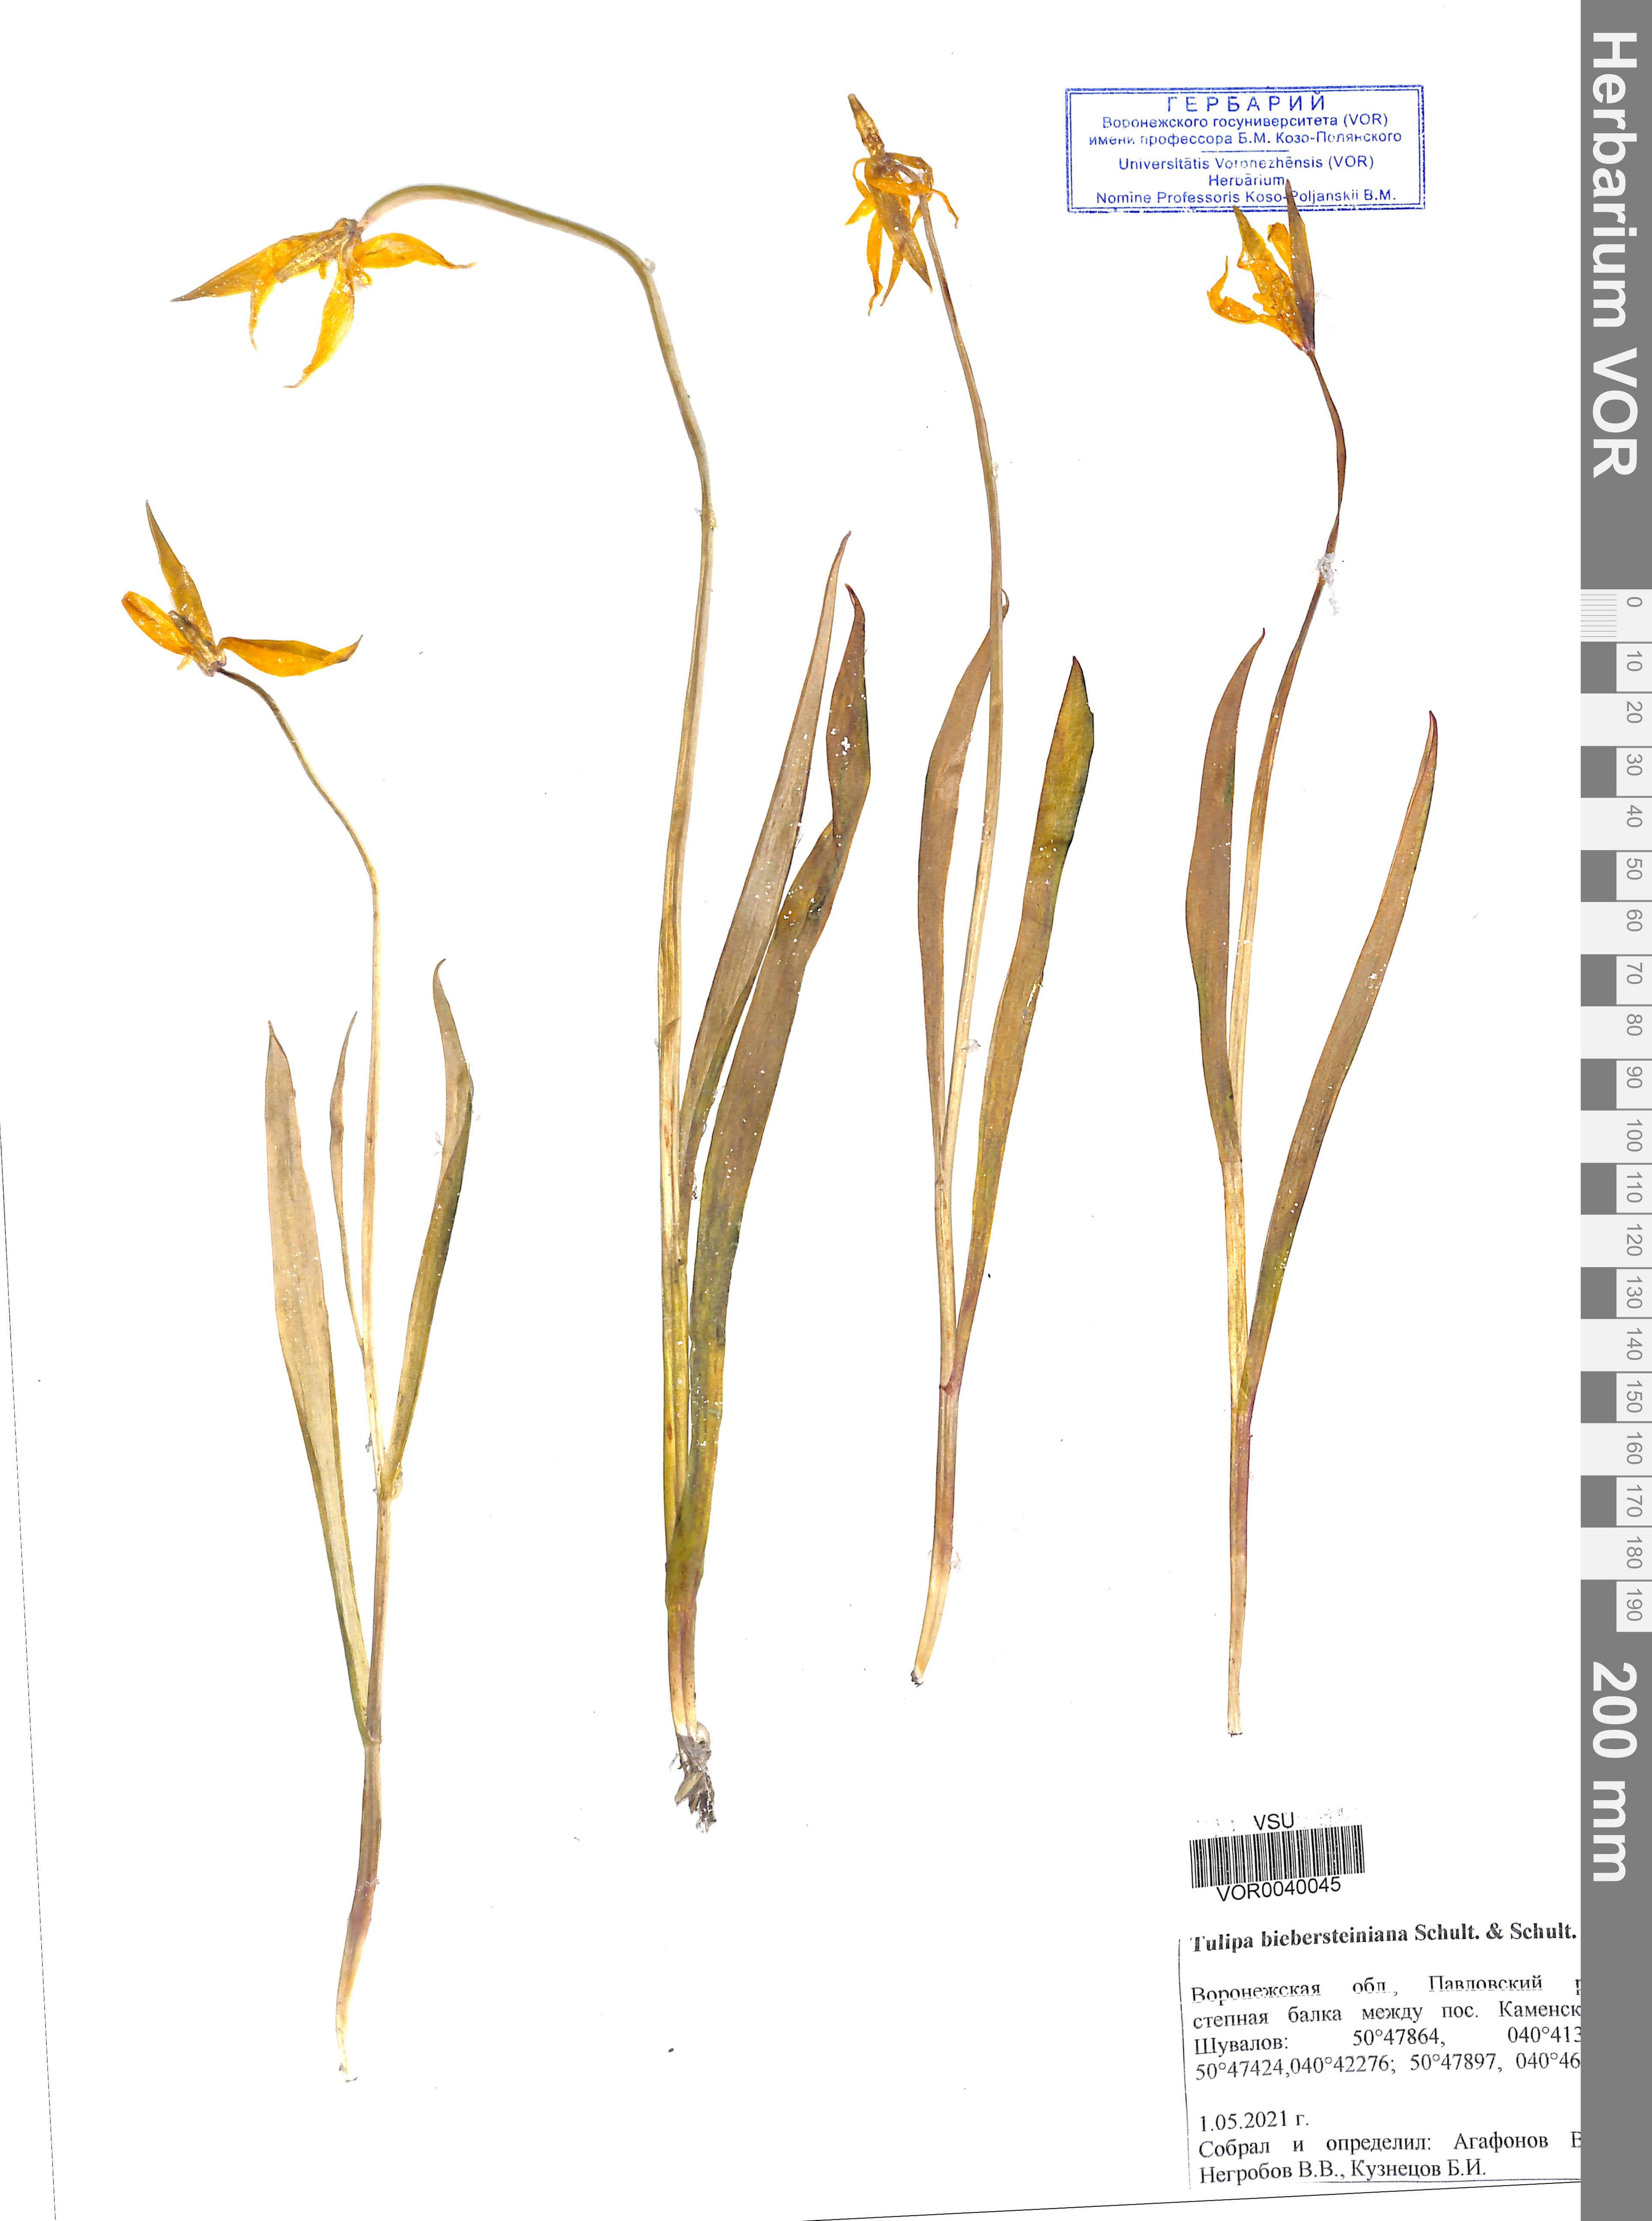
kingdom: Plantae
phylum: Tracheophyta
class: Liliopsida
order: Liliales
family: Liliaceae
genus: Tulipa
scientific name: Tulipa sylvestris
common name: Wild tulip
